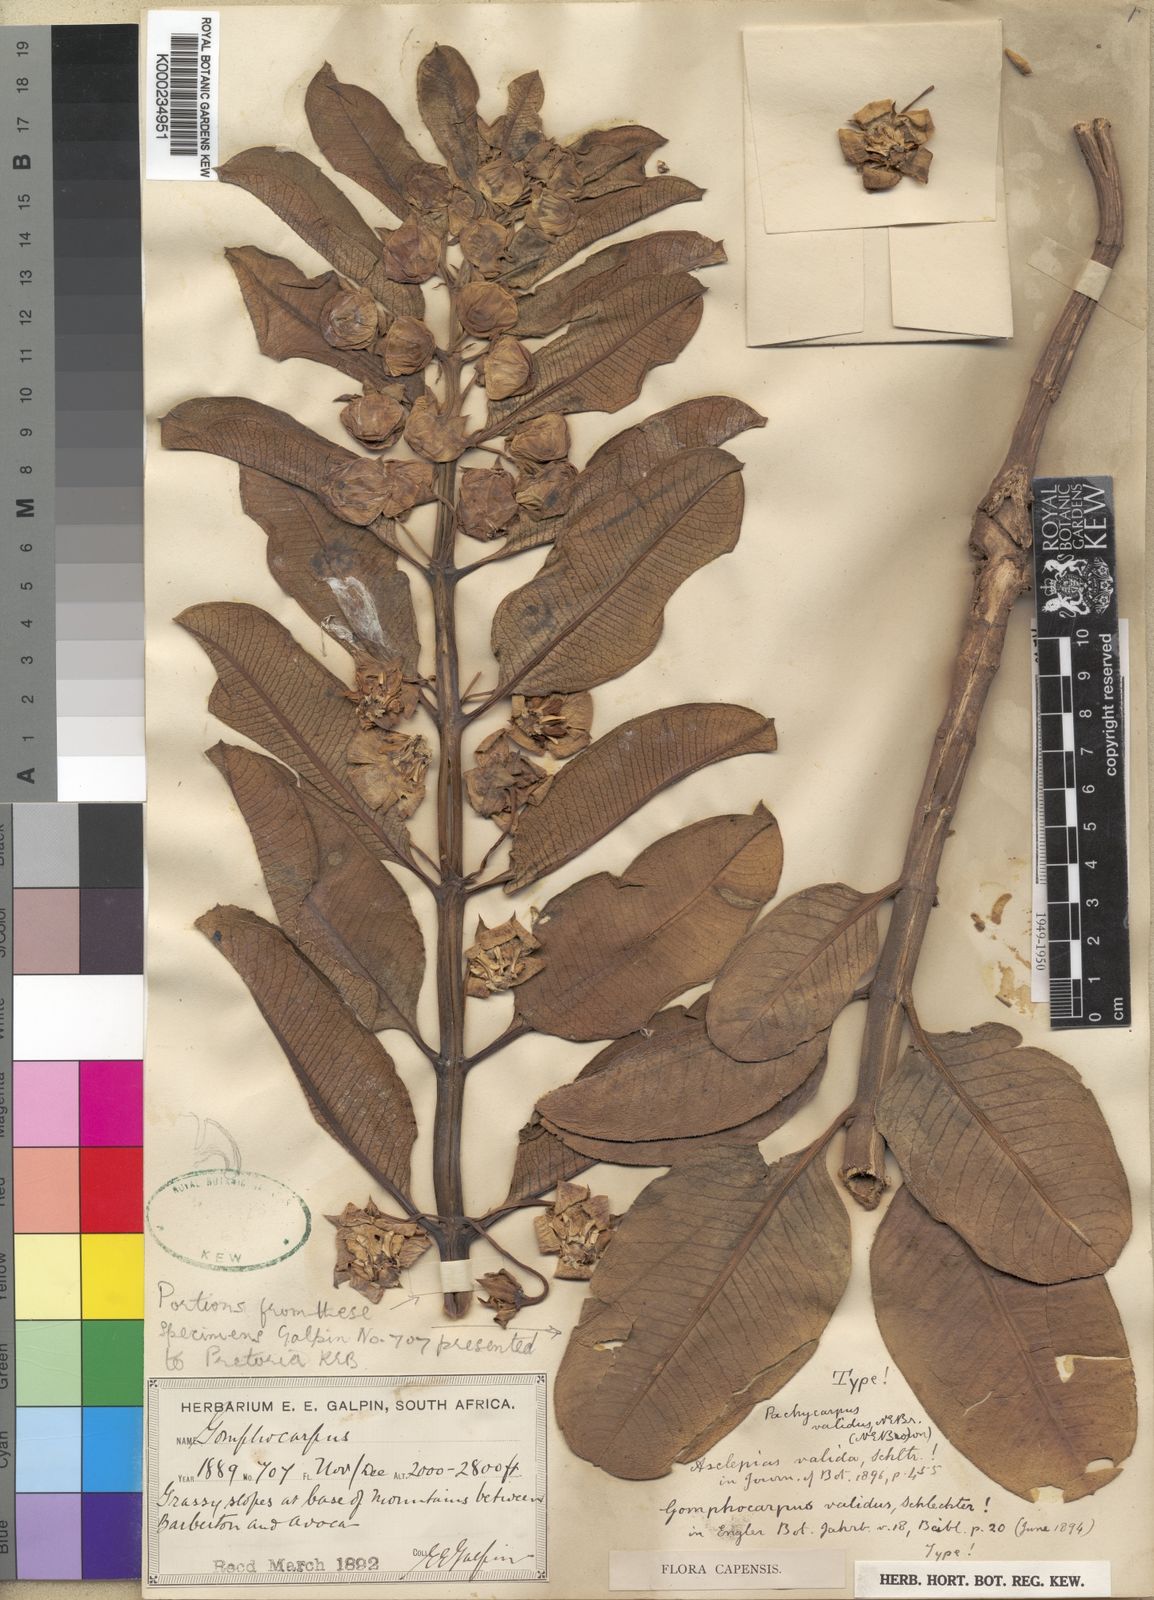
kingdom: Plantae
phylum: Tracheophyta
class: Magnoliopsida
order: Gentianales
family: Apocynaceae
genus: Pachycarpus
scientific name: Pachycarpus asperifolius
